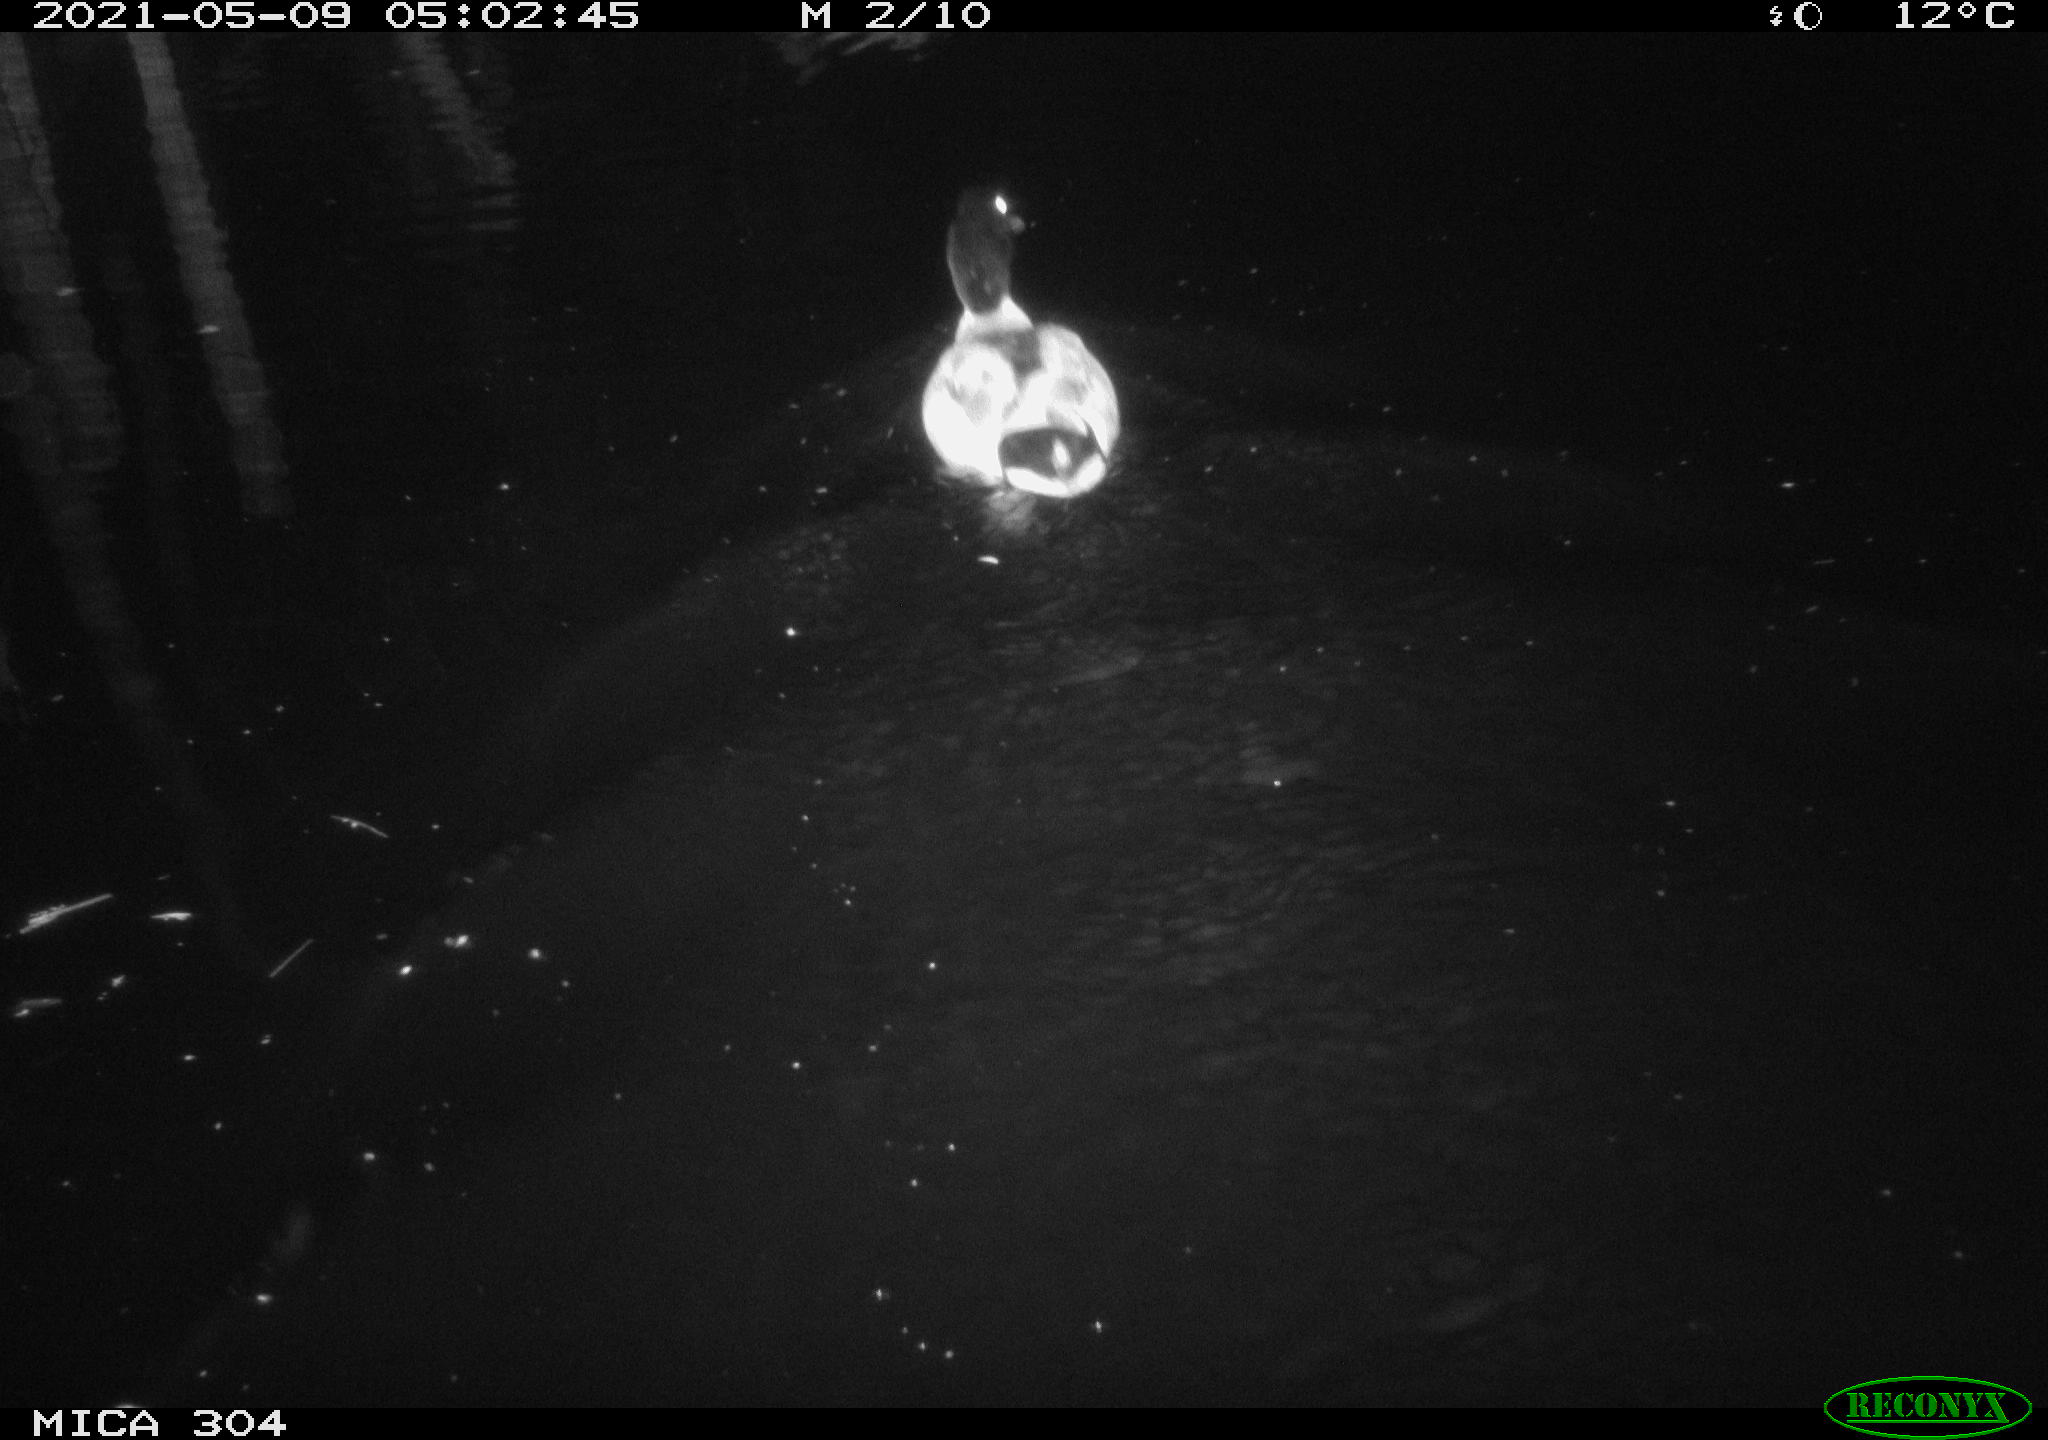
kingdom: Animalia
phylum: Chordata
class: Aves
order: Anseriformes
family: Anatidae
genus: Anas
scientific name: Anas platyrhynchos
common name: Mallard
